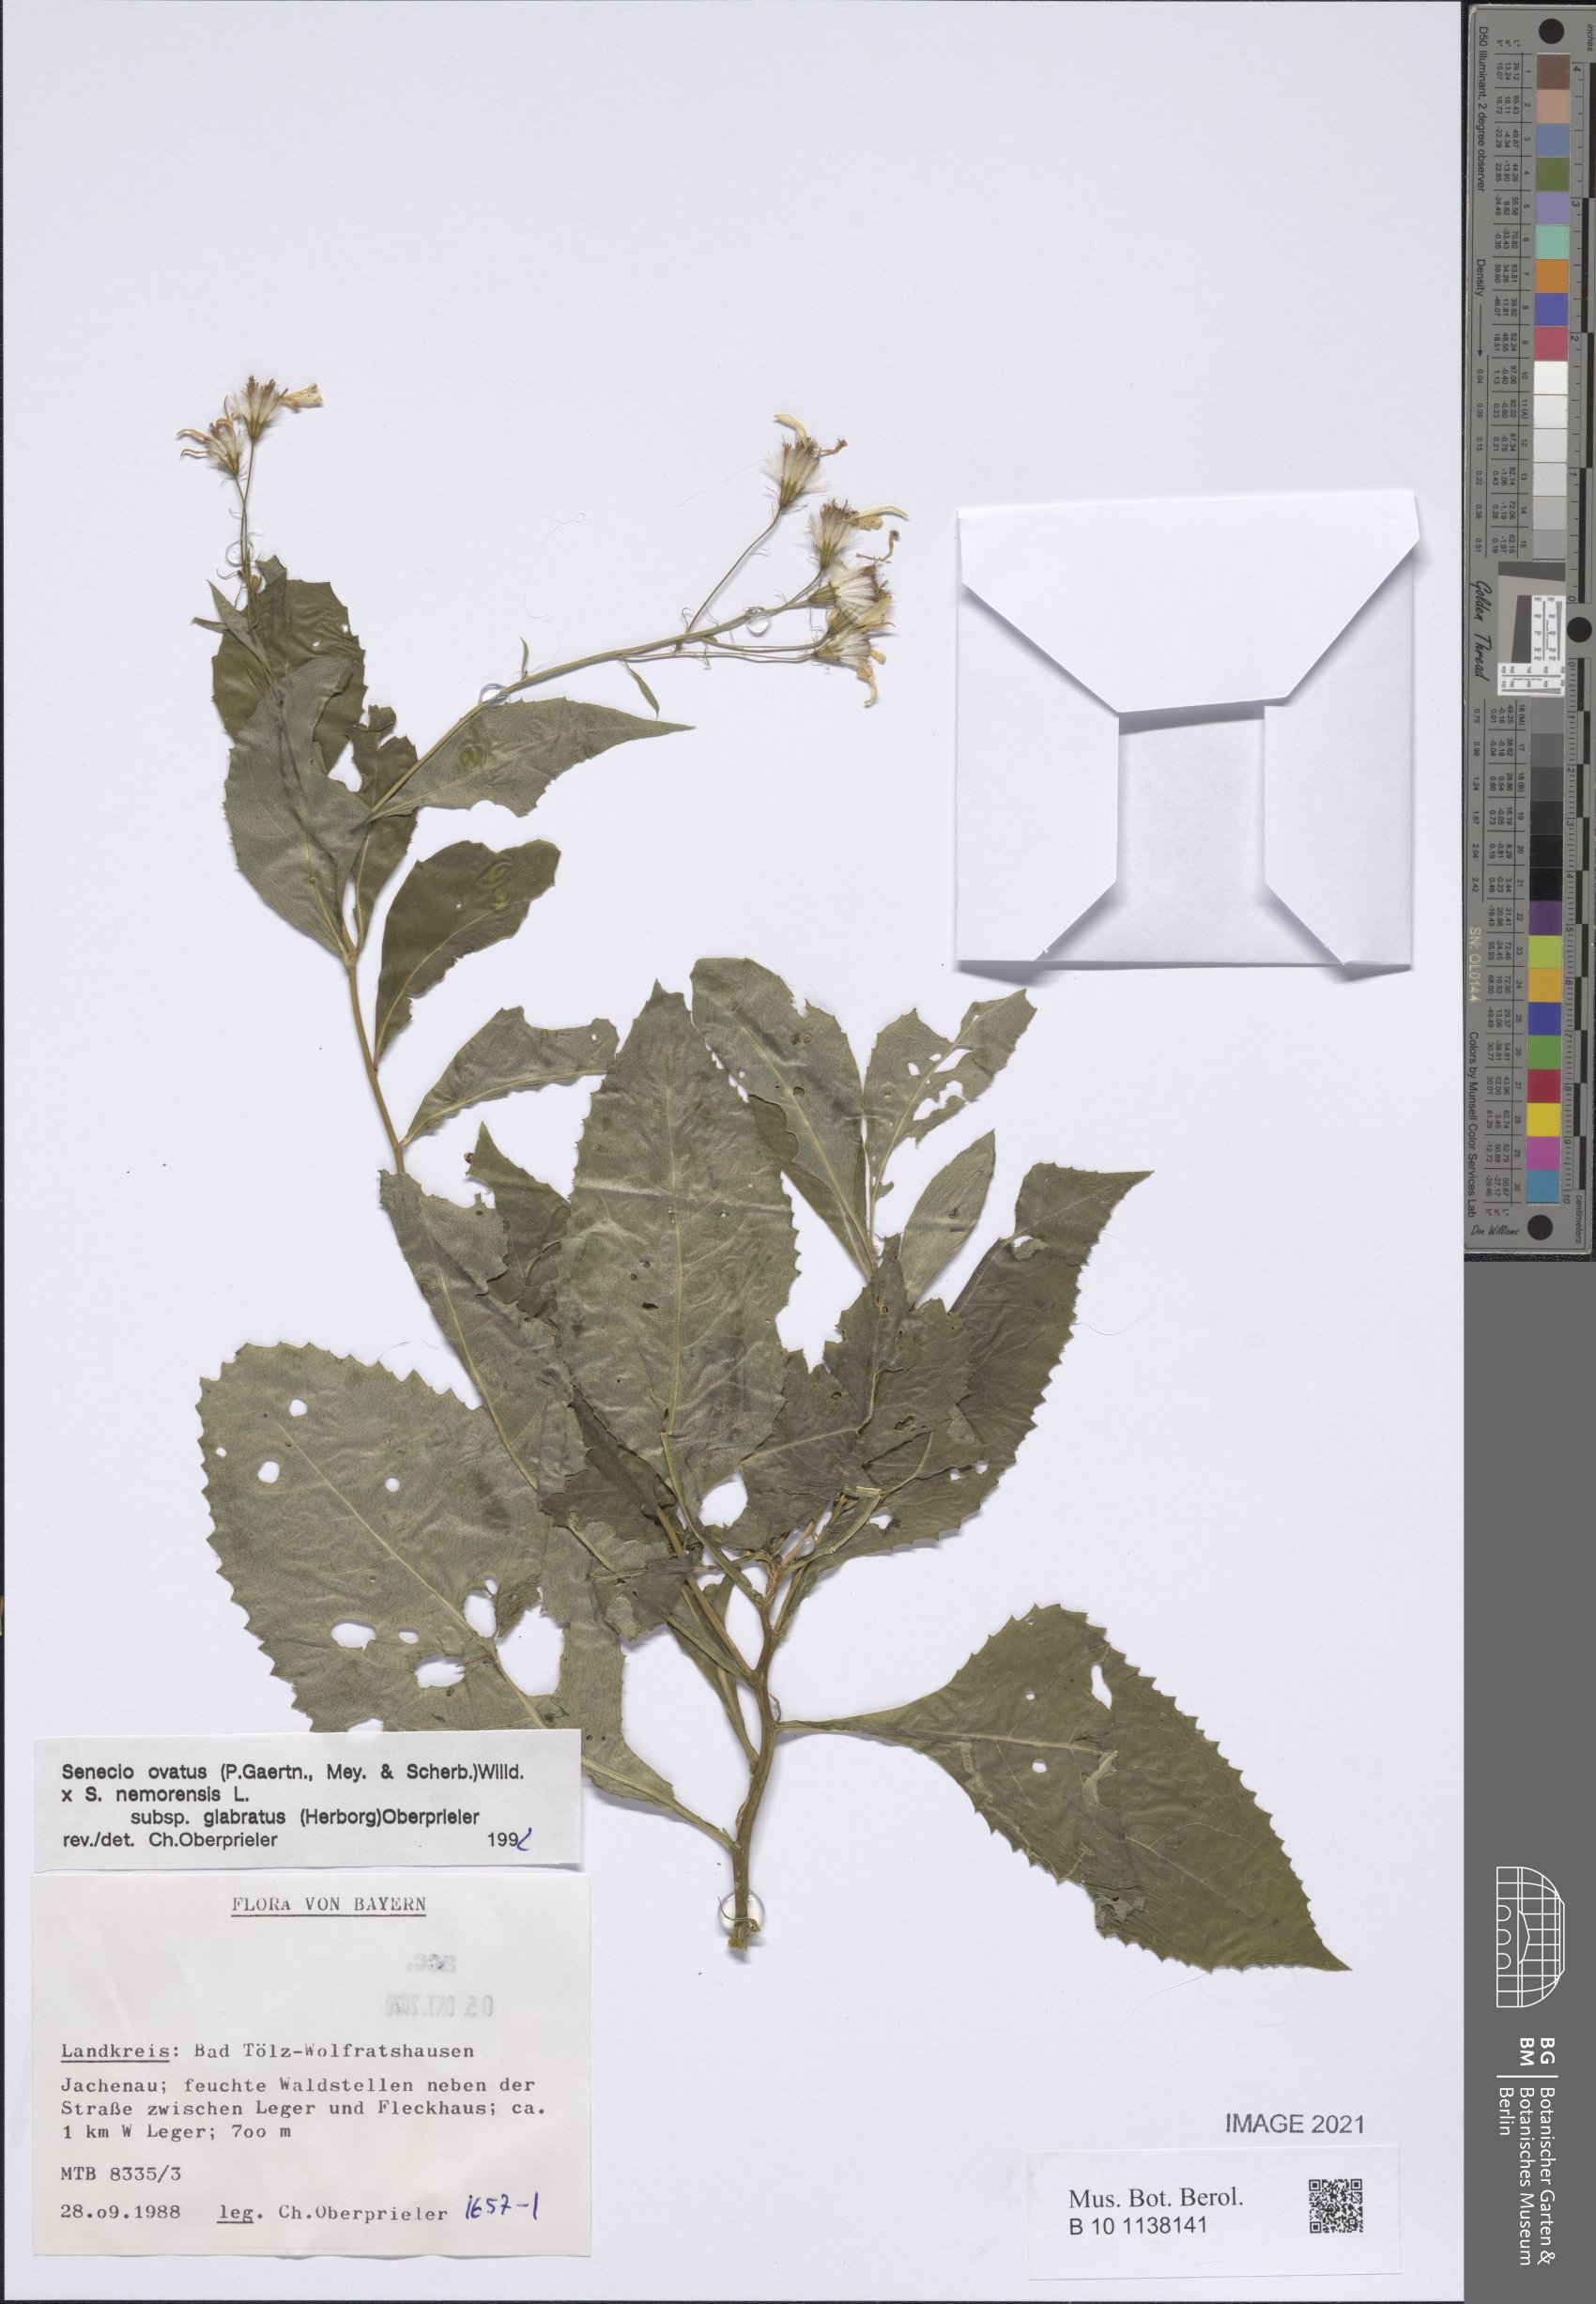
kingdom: Plantae
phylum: Tracheophyta
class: Magnoliopsida
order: Asterales
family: Asteraceae
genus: Senecio
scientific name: Senecio ovatus
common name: Wood ragwort
